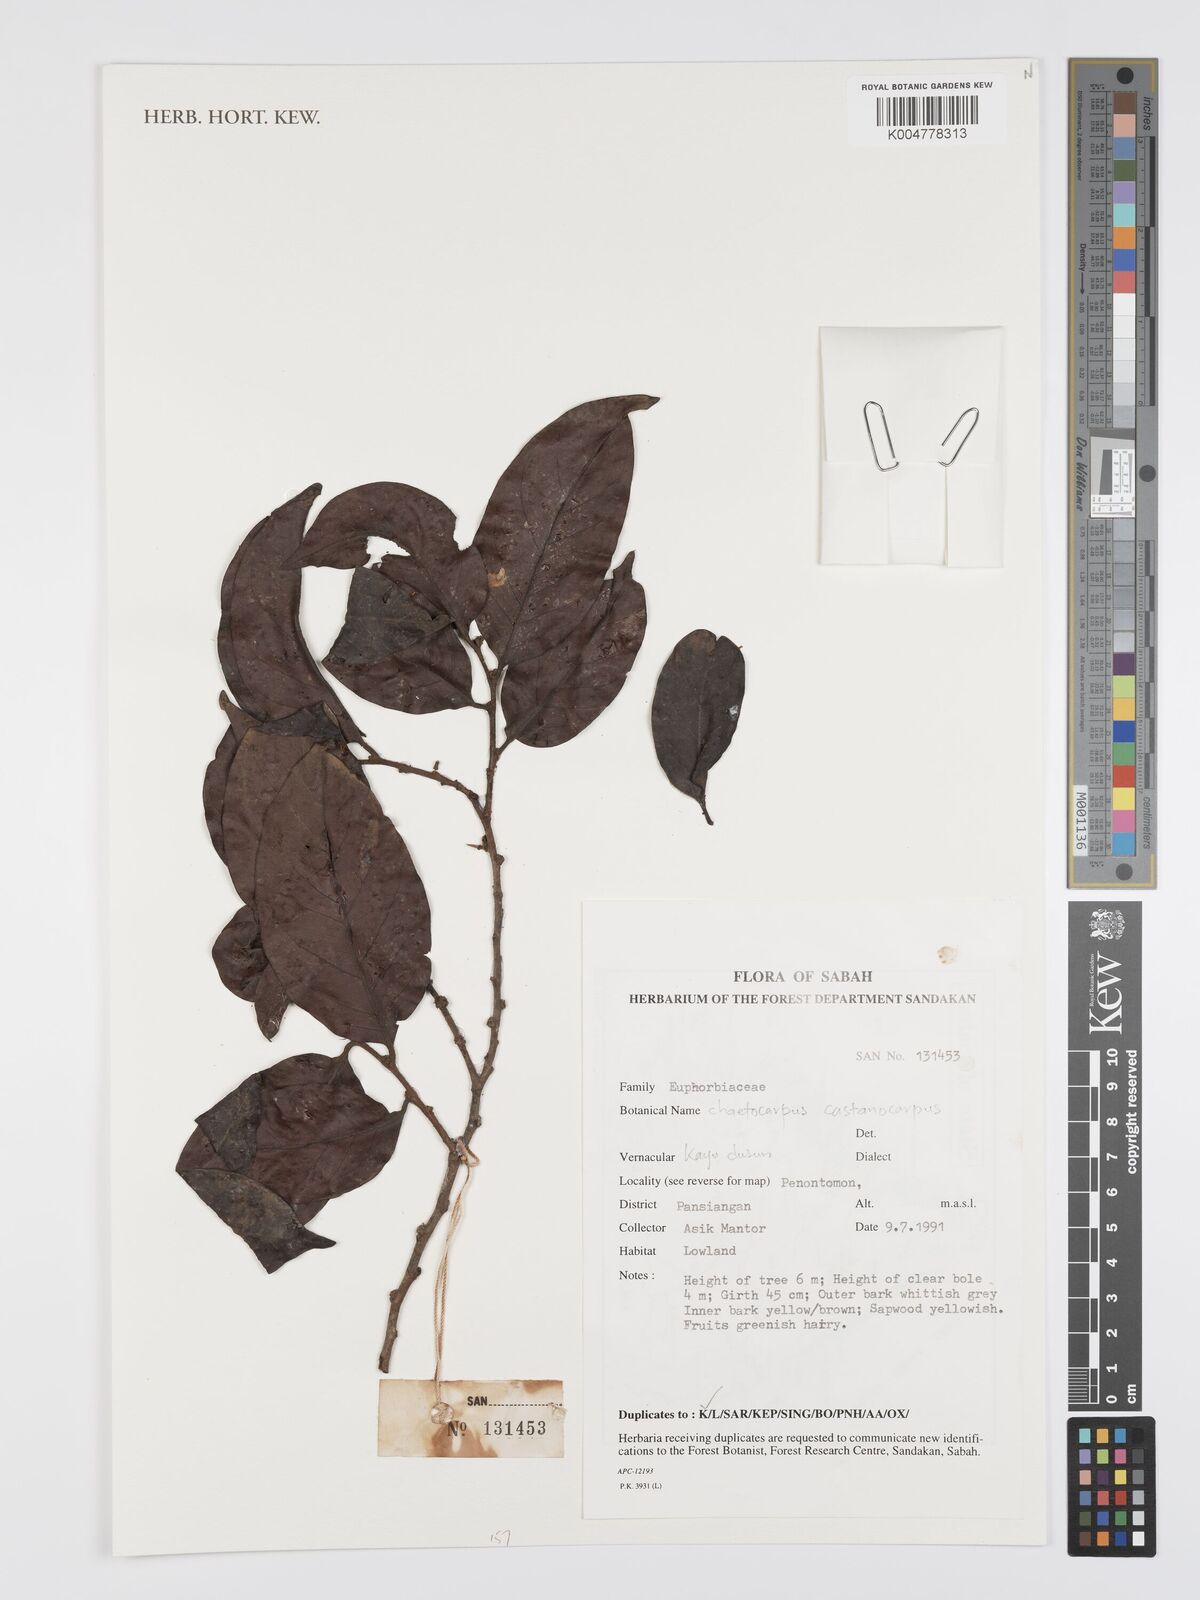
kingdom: Plantae
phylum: Tracheophyta
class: Magnoliopsida
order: Malpighiales
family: Peraceae
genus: Chaetocarpus
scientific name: Chaetocarpus castanocarpus
